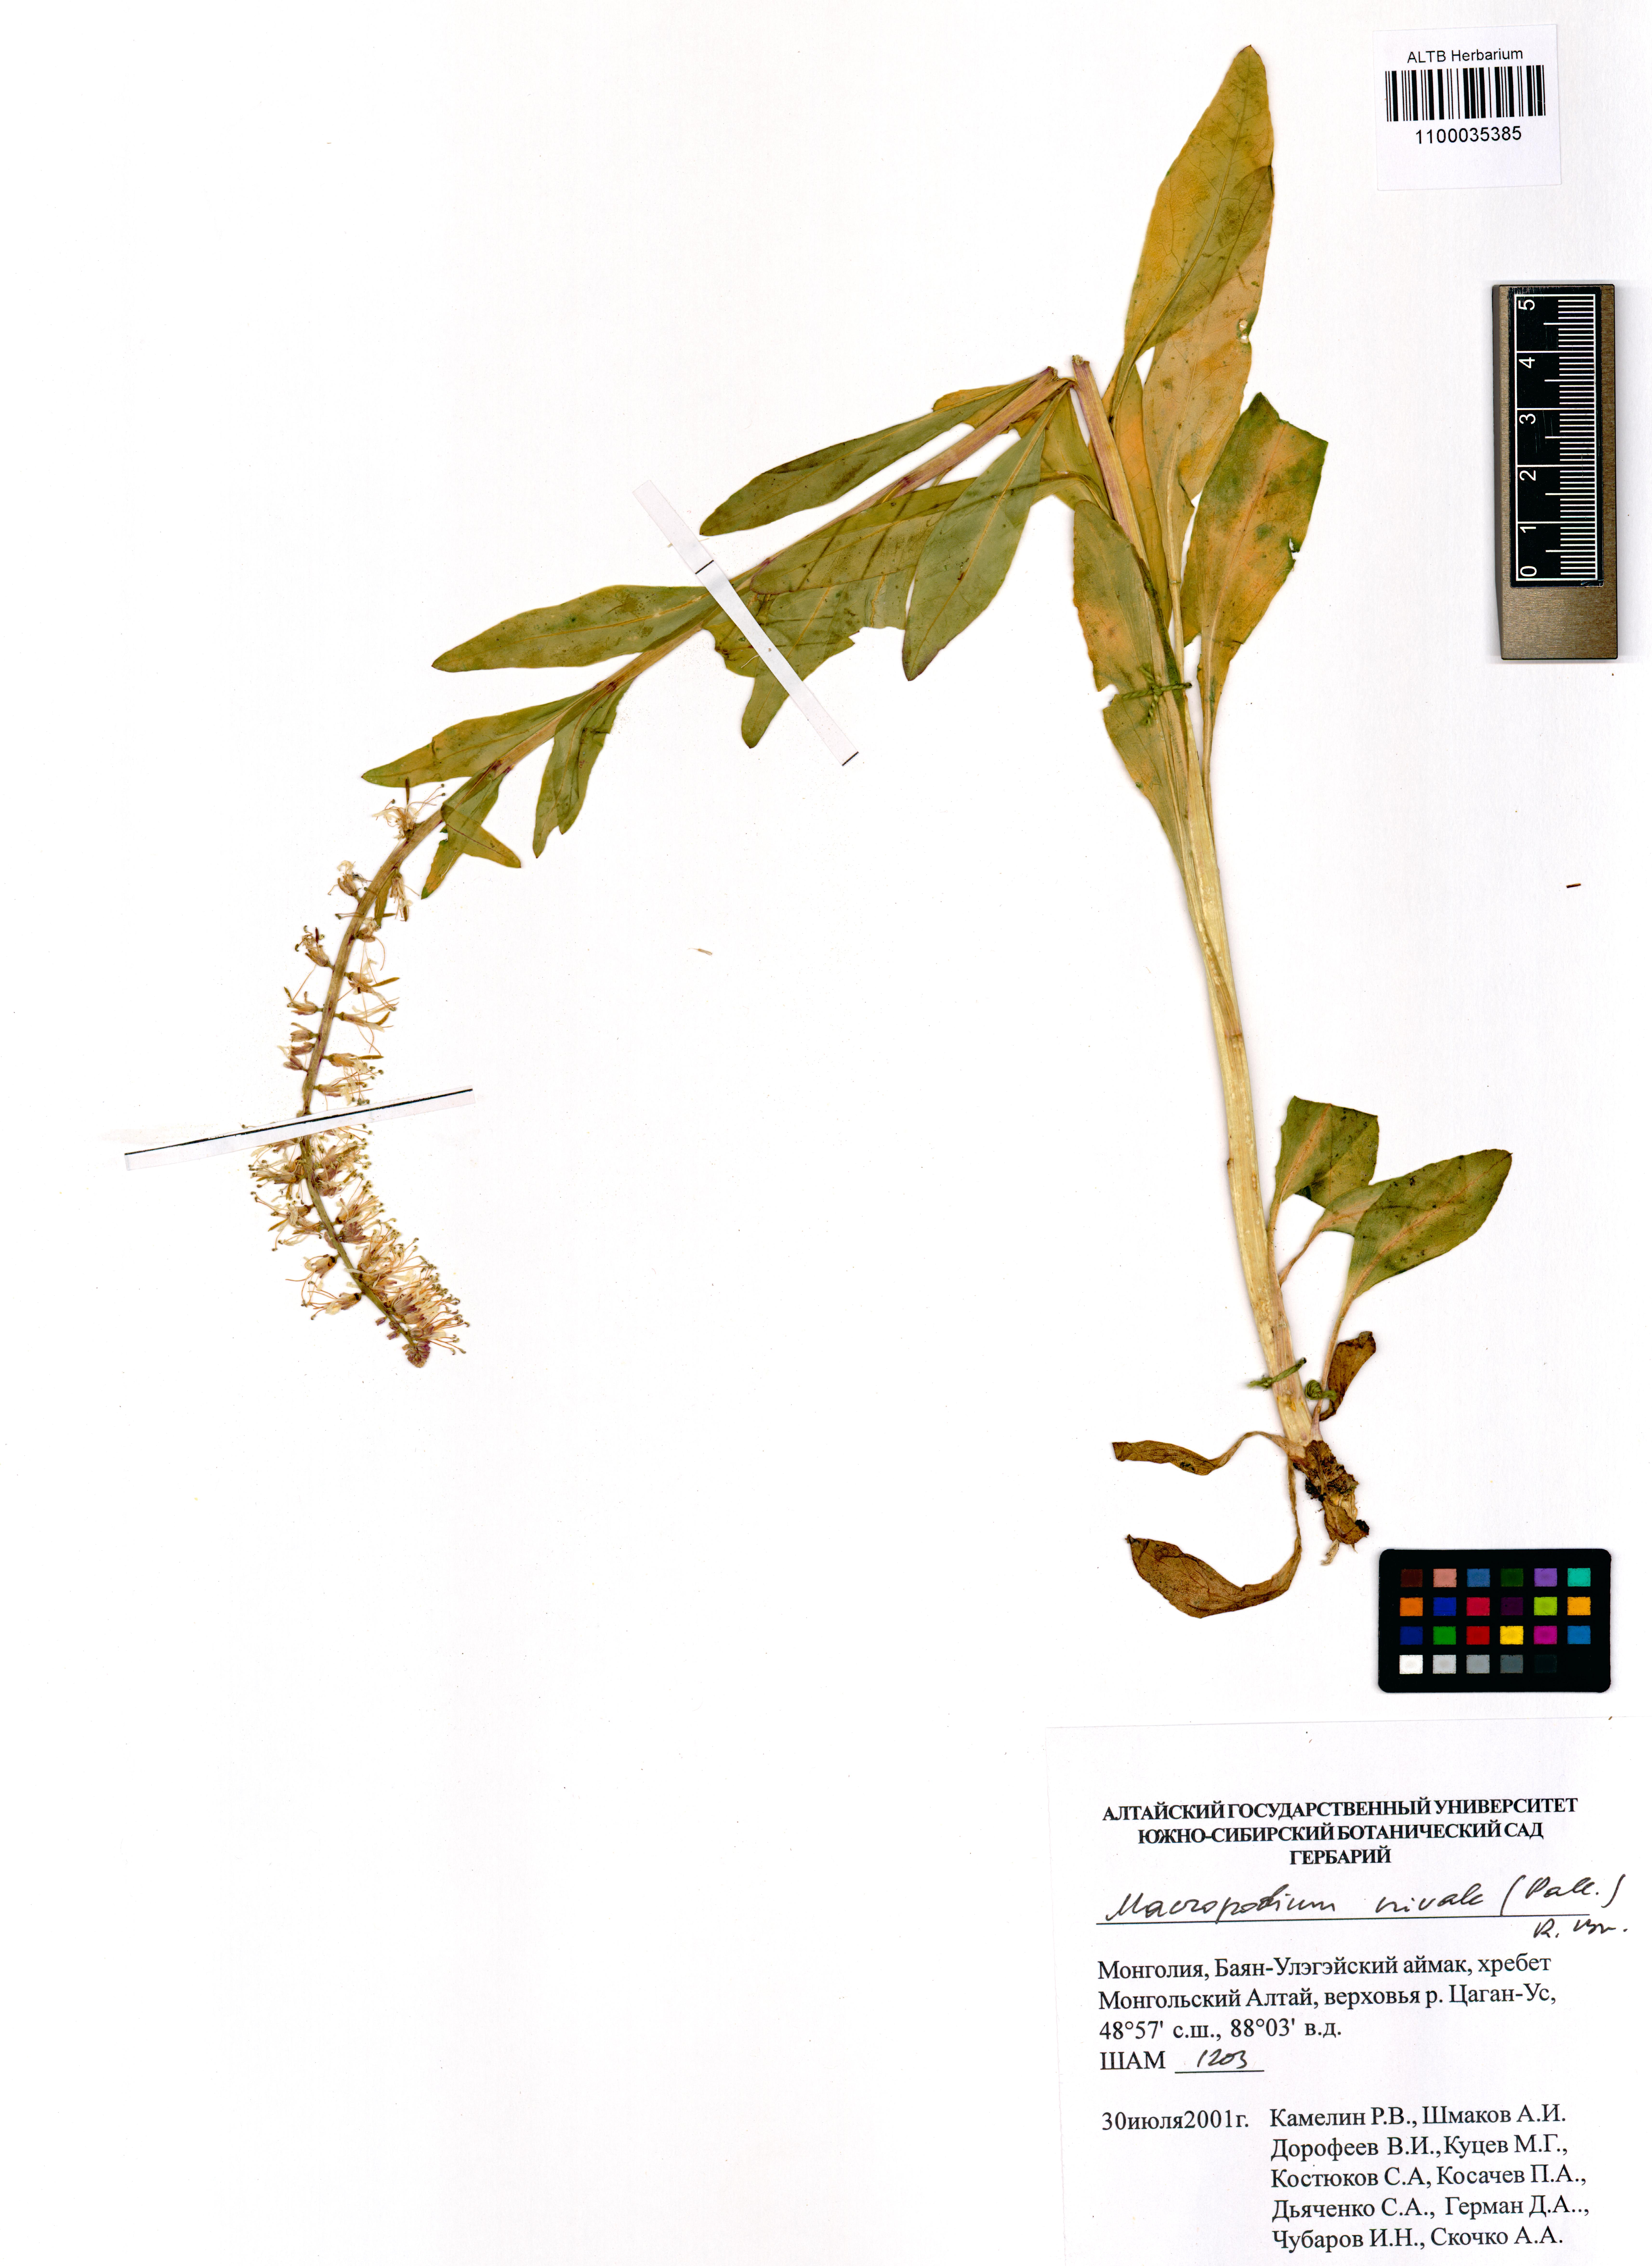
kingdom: Plantae
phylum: Tracheophyta
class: Magnoliopsida
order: Brassicales
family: Brassicaceae
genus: Macropodium
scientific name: Macropodium nivale
